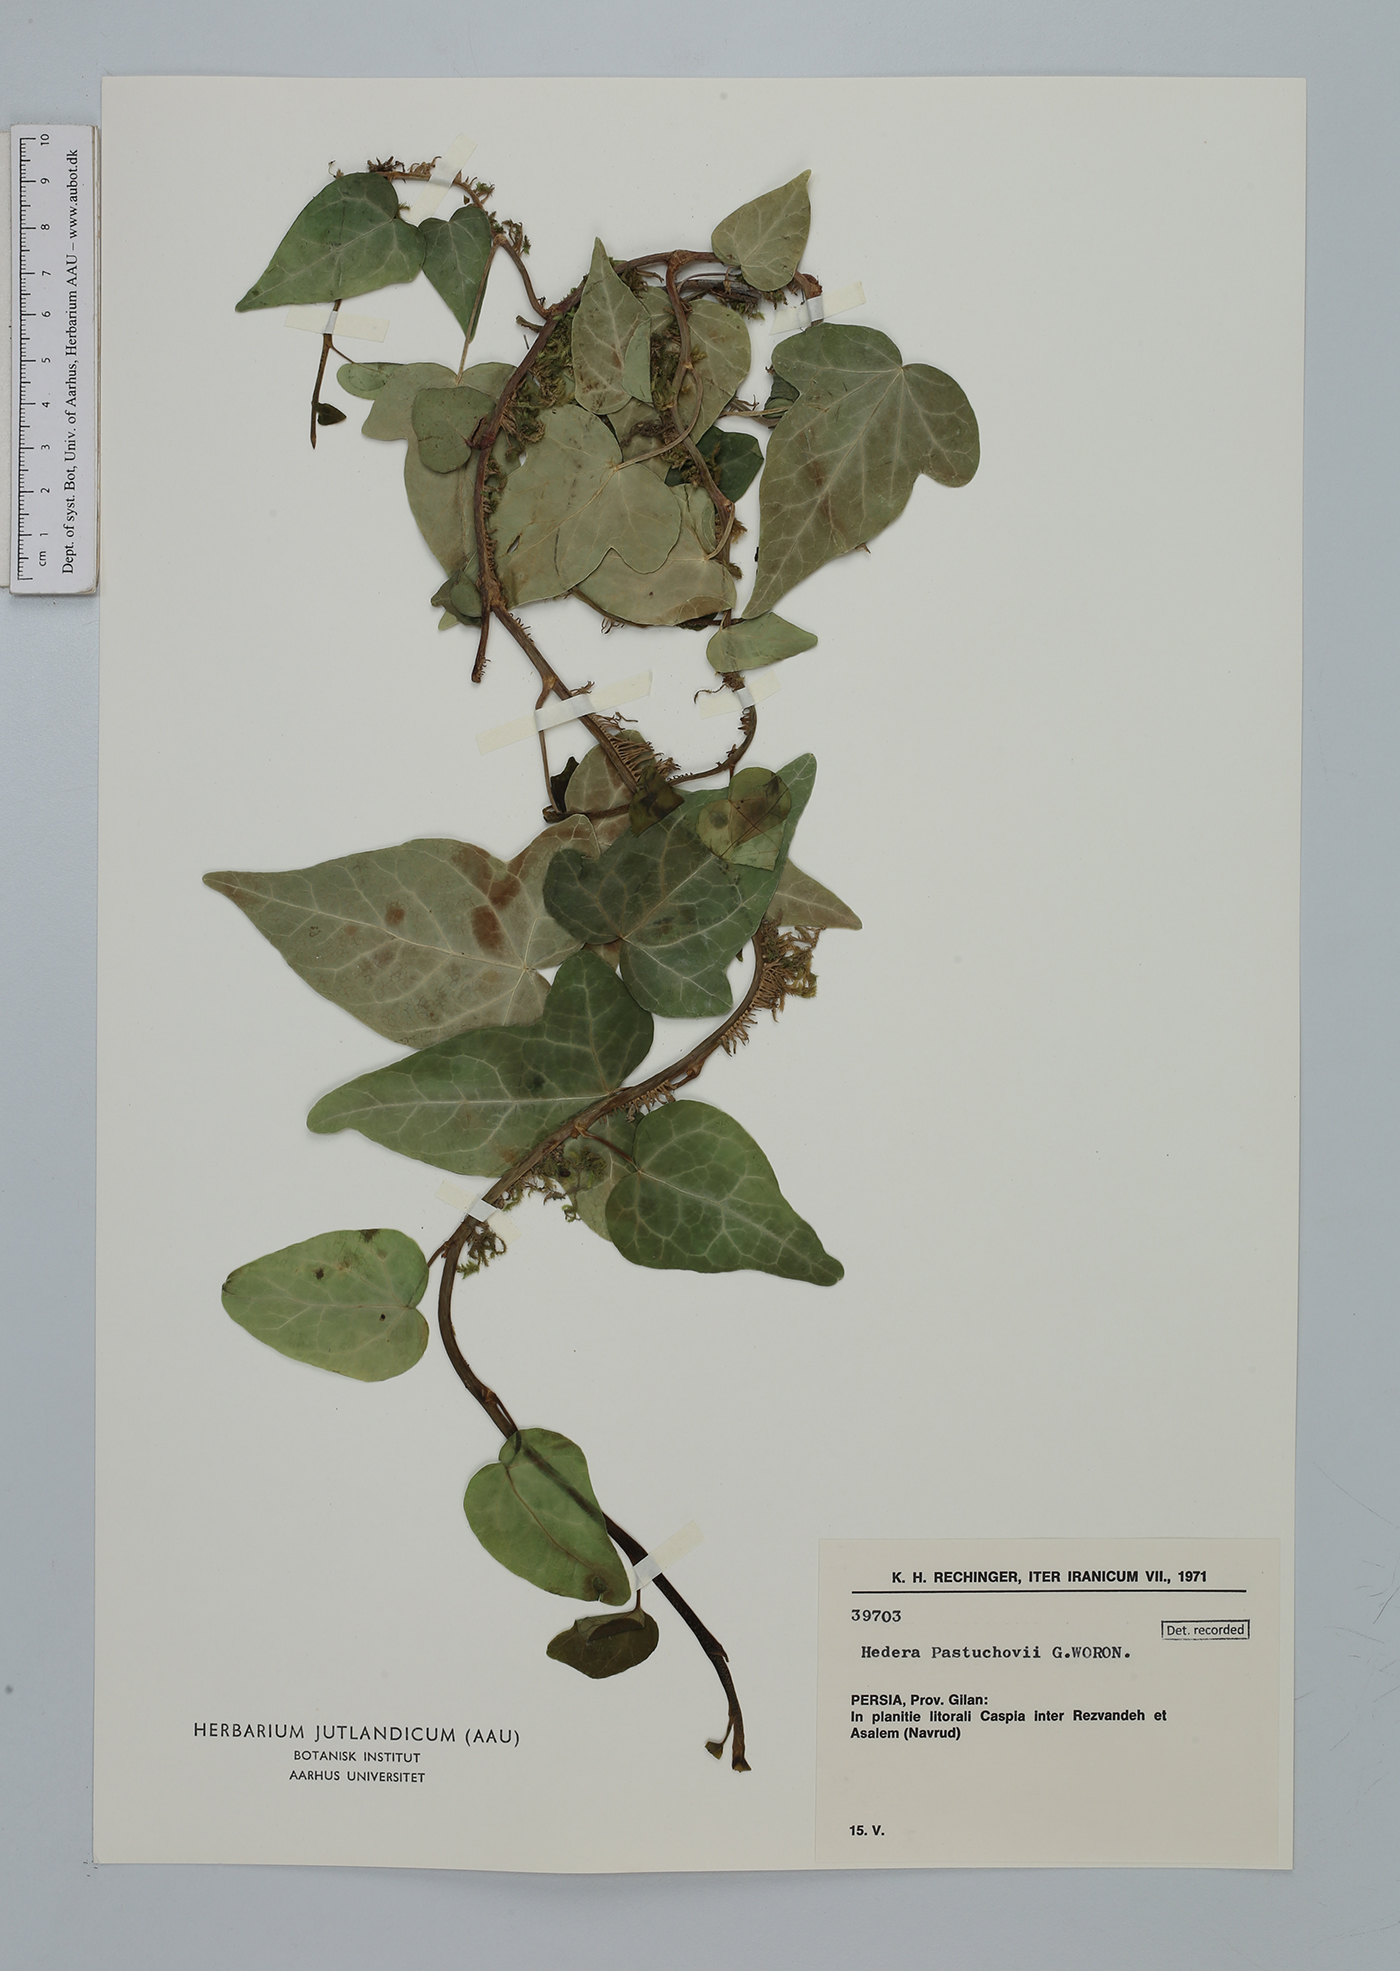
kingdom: Plantae
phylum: Tracheophyta
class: Magnoliopsida
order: Apiales
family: Araliaceae
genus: Hedera
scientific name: Hedera pastuchovii
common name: Persian ivy
